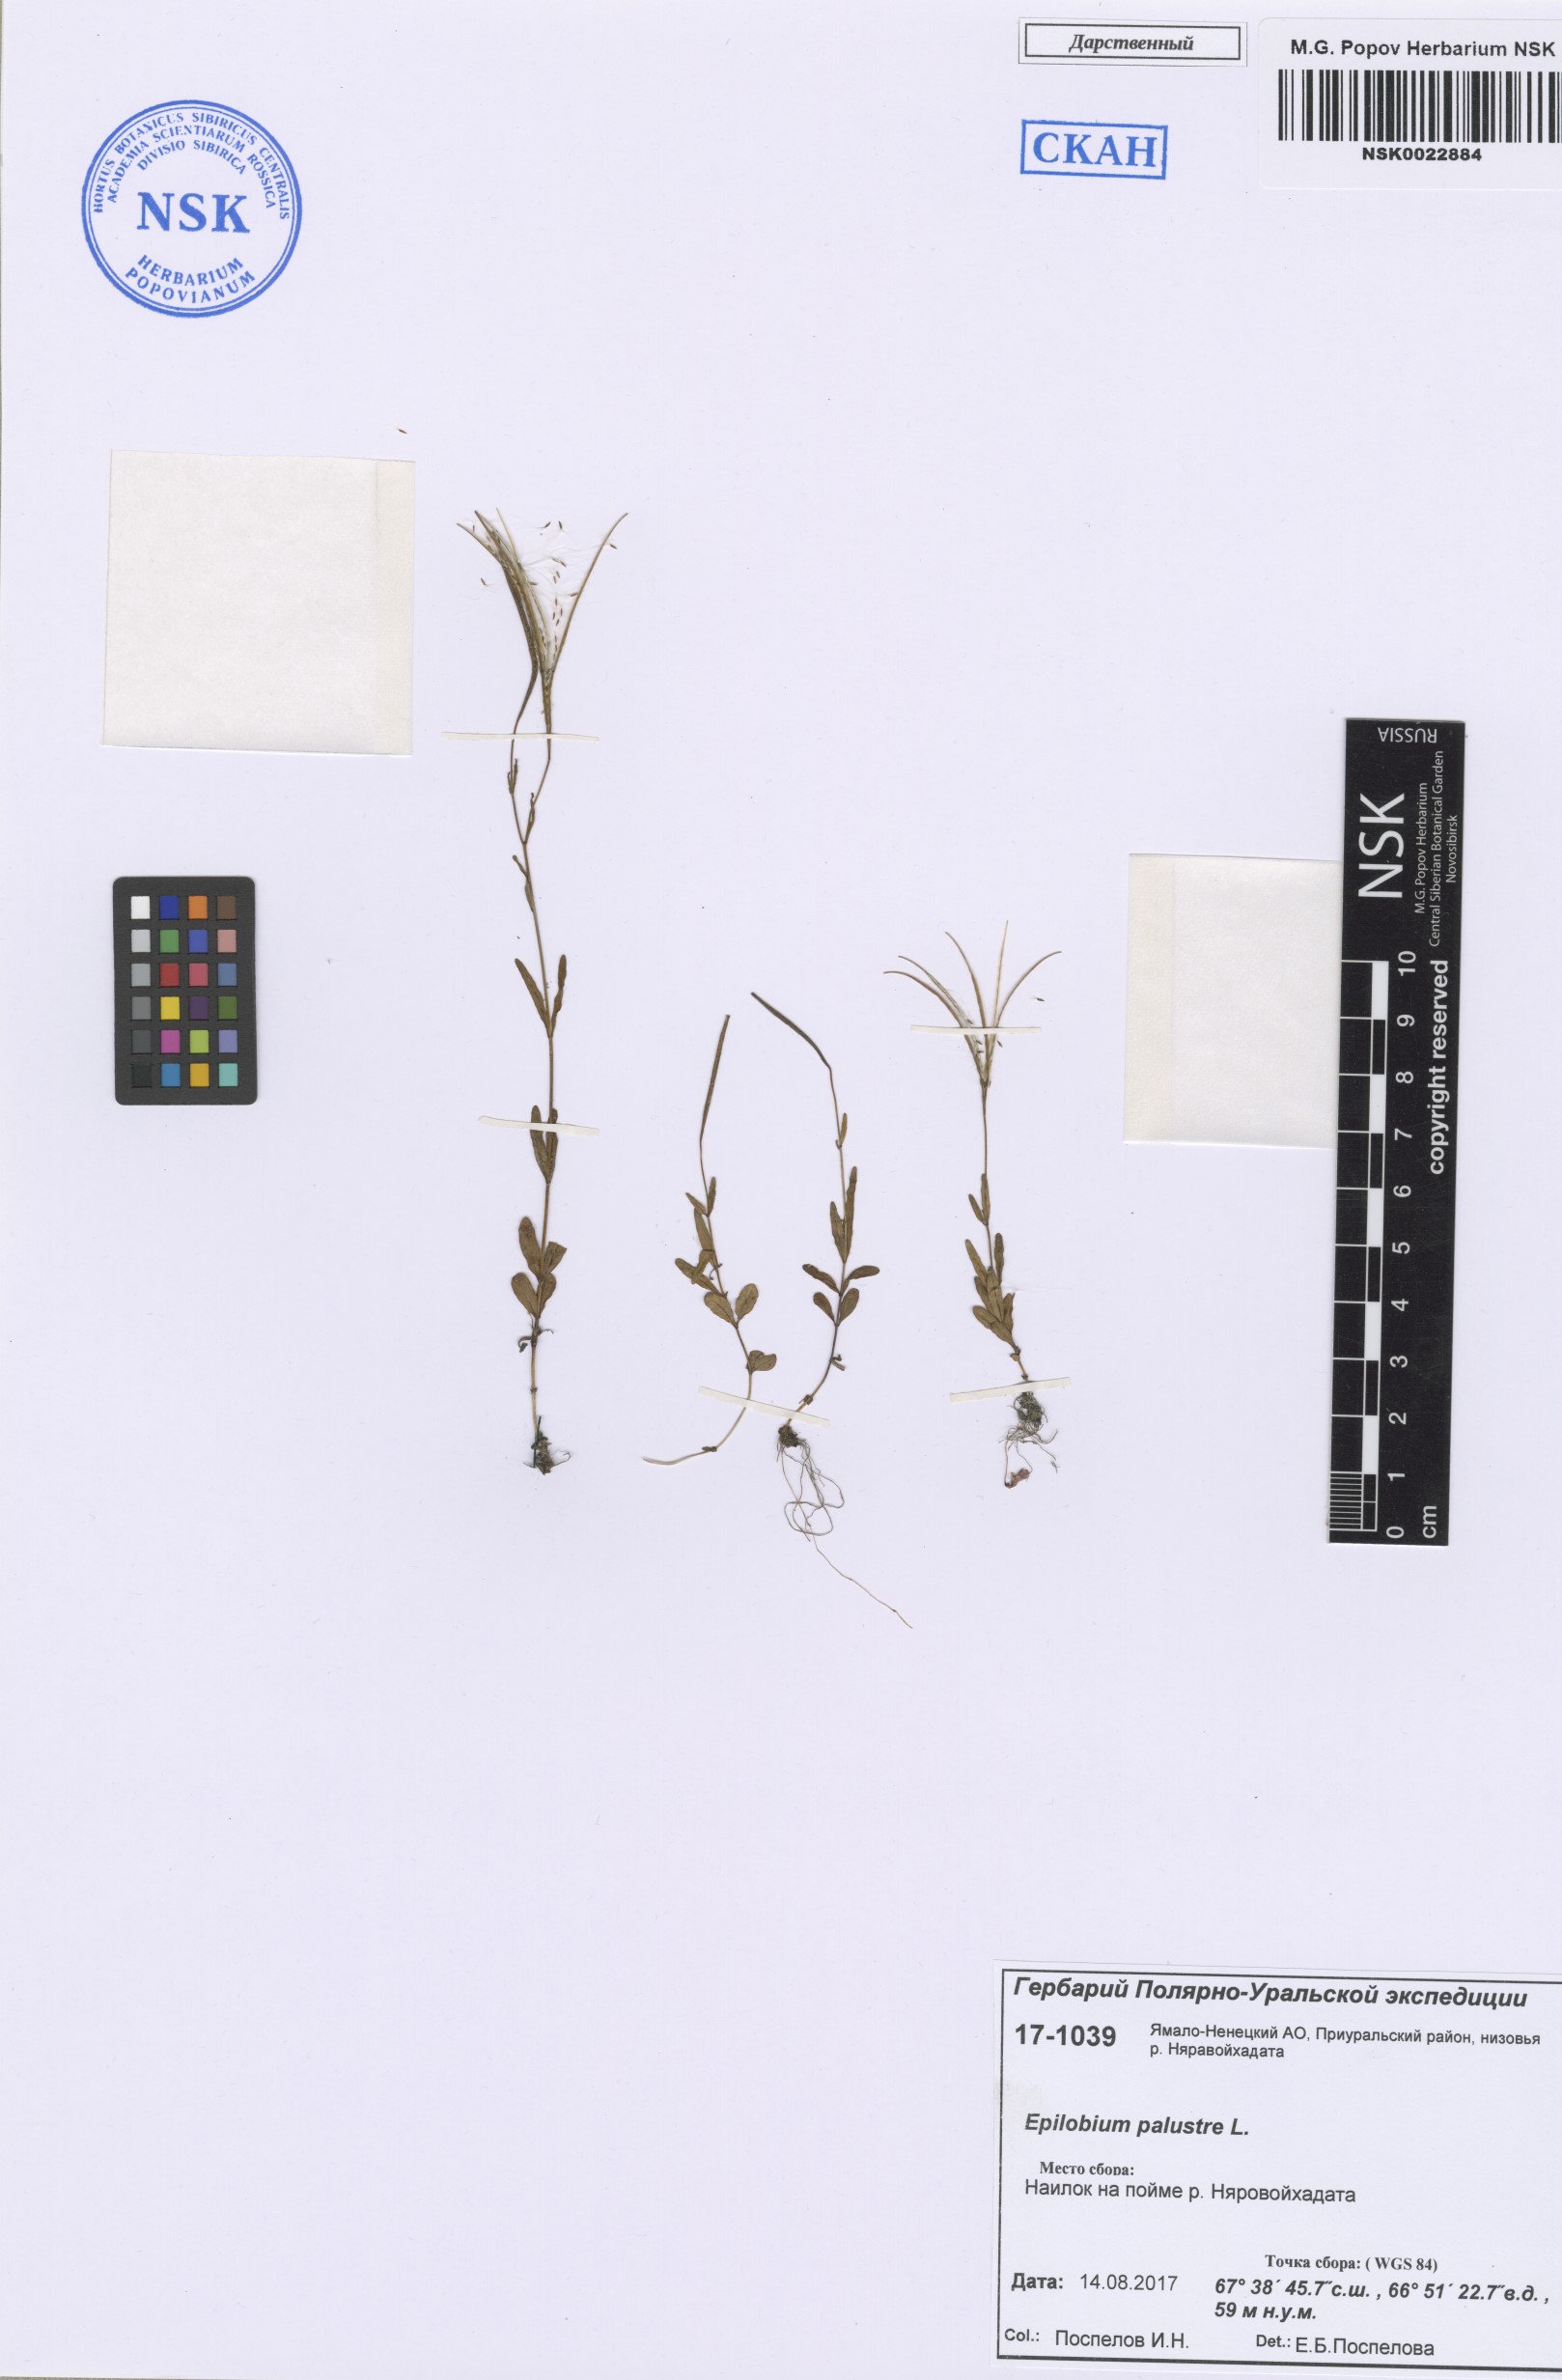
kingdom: Plantae
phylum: Tracheophyta
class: Magnoliopsida
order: Myrtales
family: Onagraceae
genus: Epilobium
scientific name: Epilobium palustre
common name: Marsh willowherb
